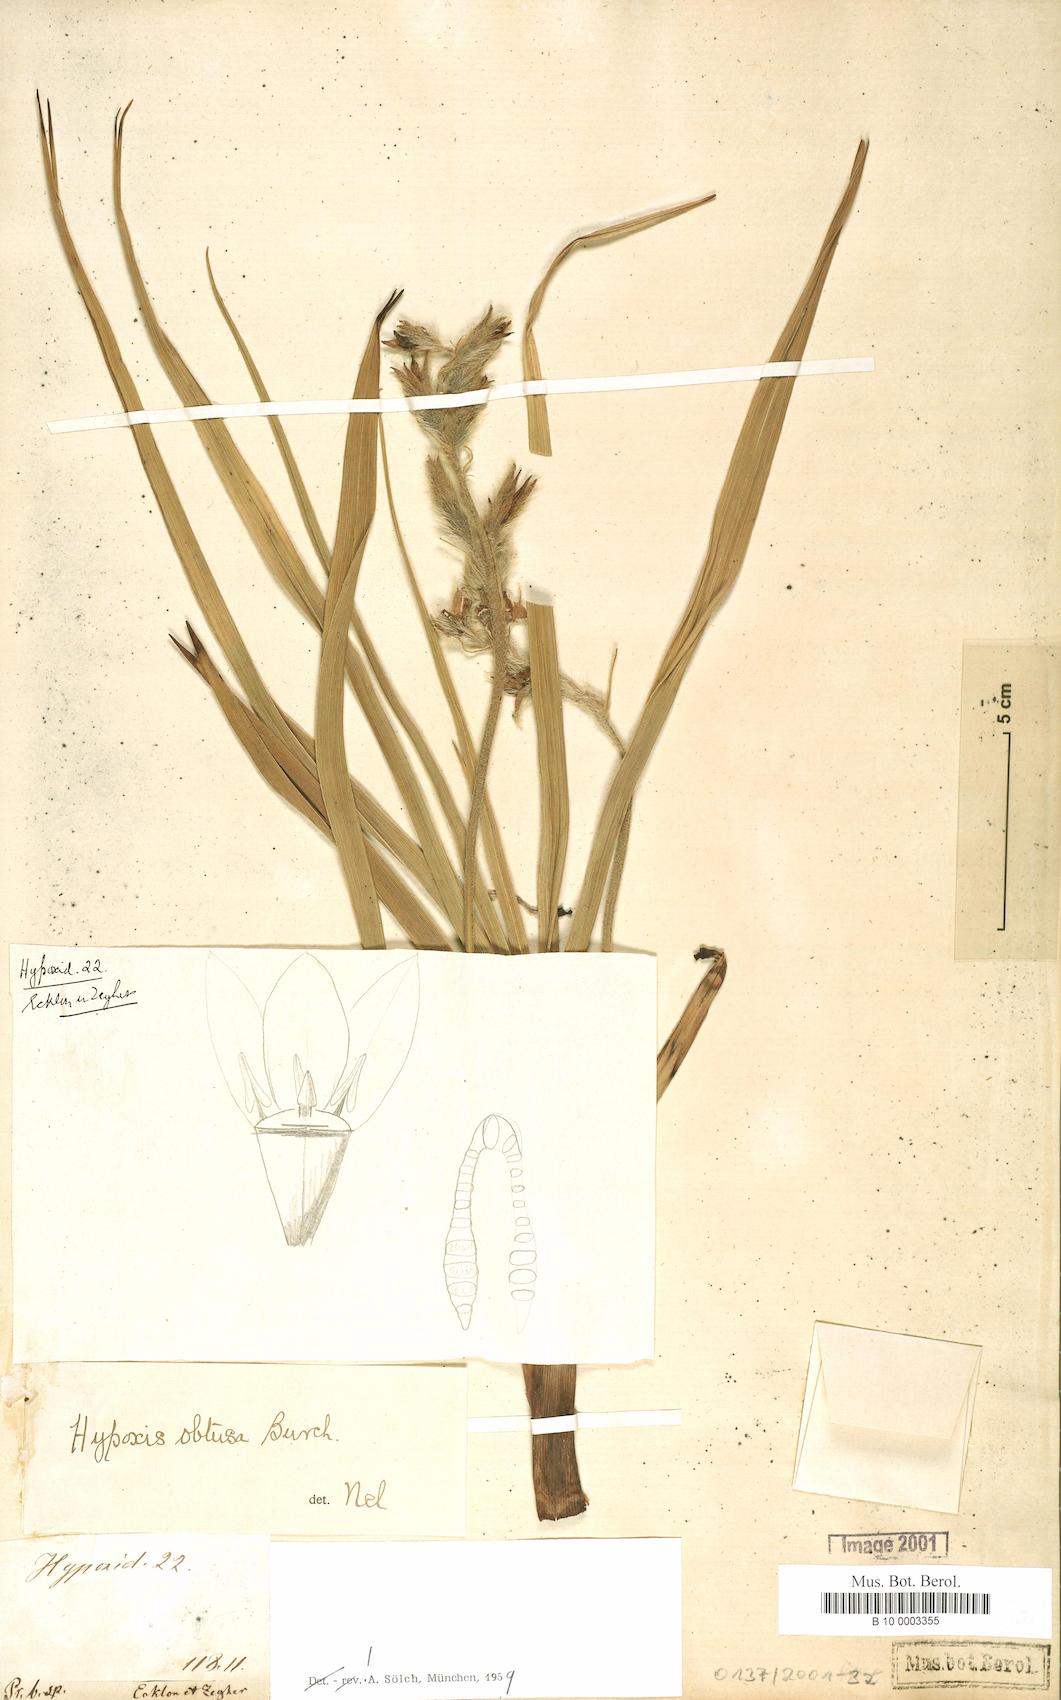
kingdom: Plantae
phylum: Tracheophyta
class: Liliopsida
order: Asparagales
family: Hypoxidaceae
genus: Hypoxis
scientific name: Hypoxis obtusa
